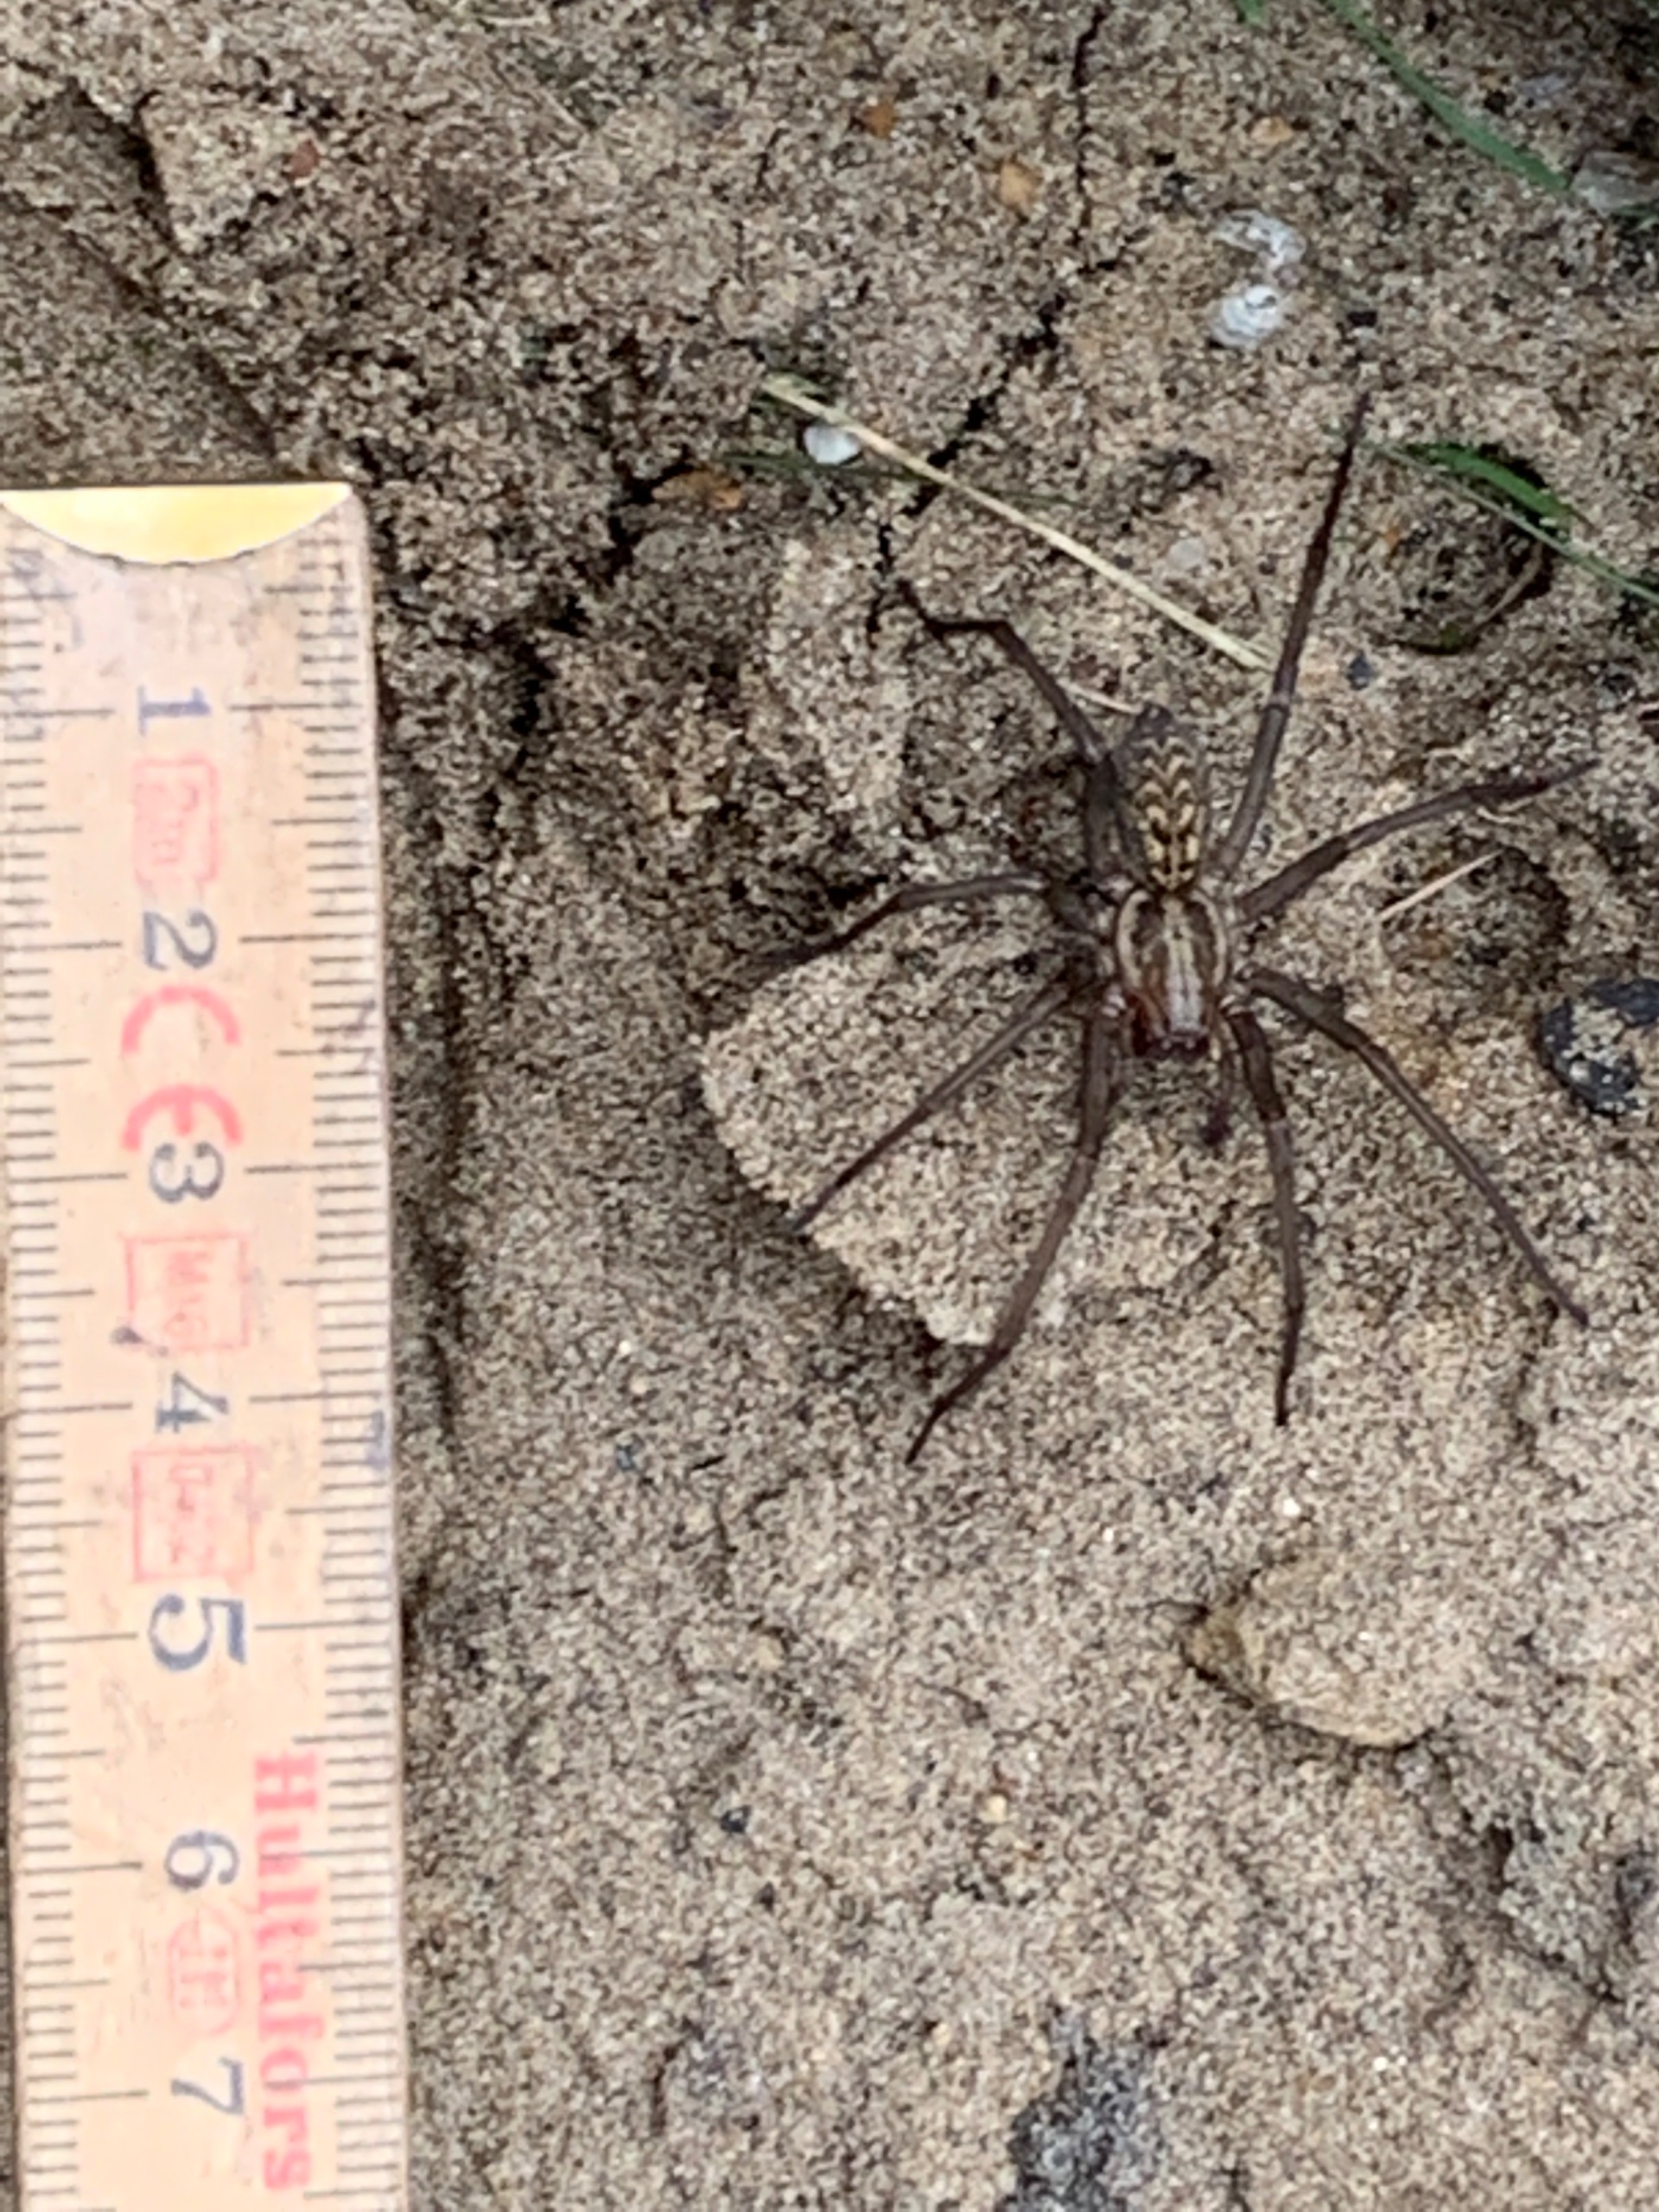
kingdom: Animalia
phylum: Arthropoda
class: Arachnida
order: Araneae
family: Agelenidae
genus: Eratigena
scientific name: Eratigena atrica
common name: Stor husedderkop
